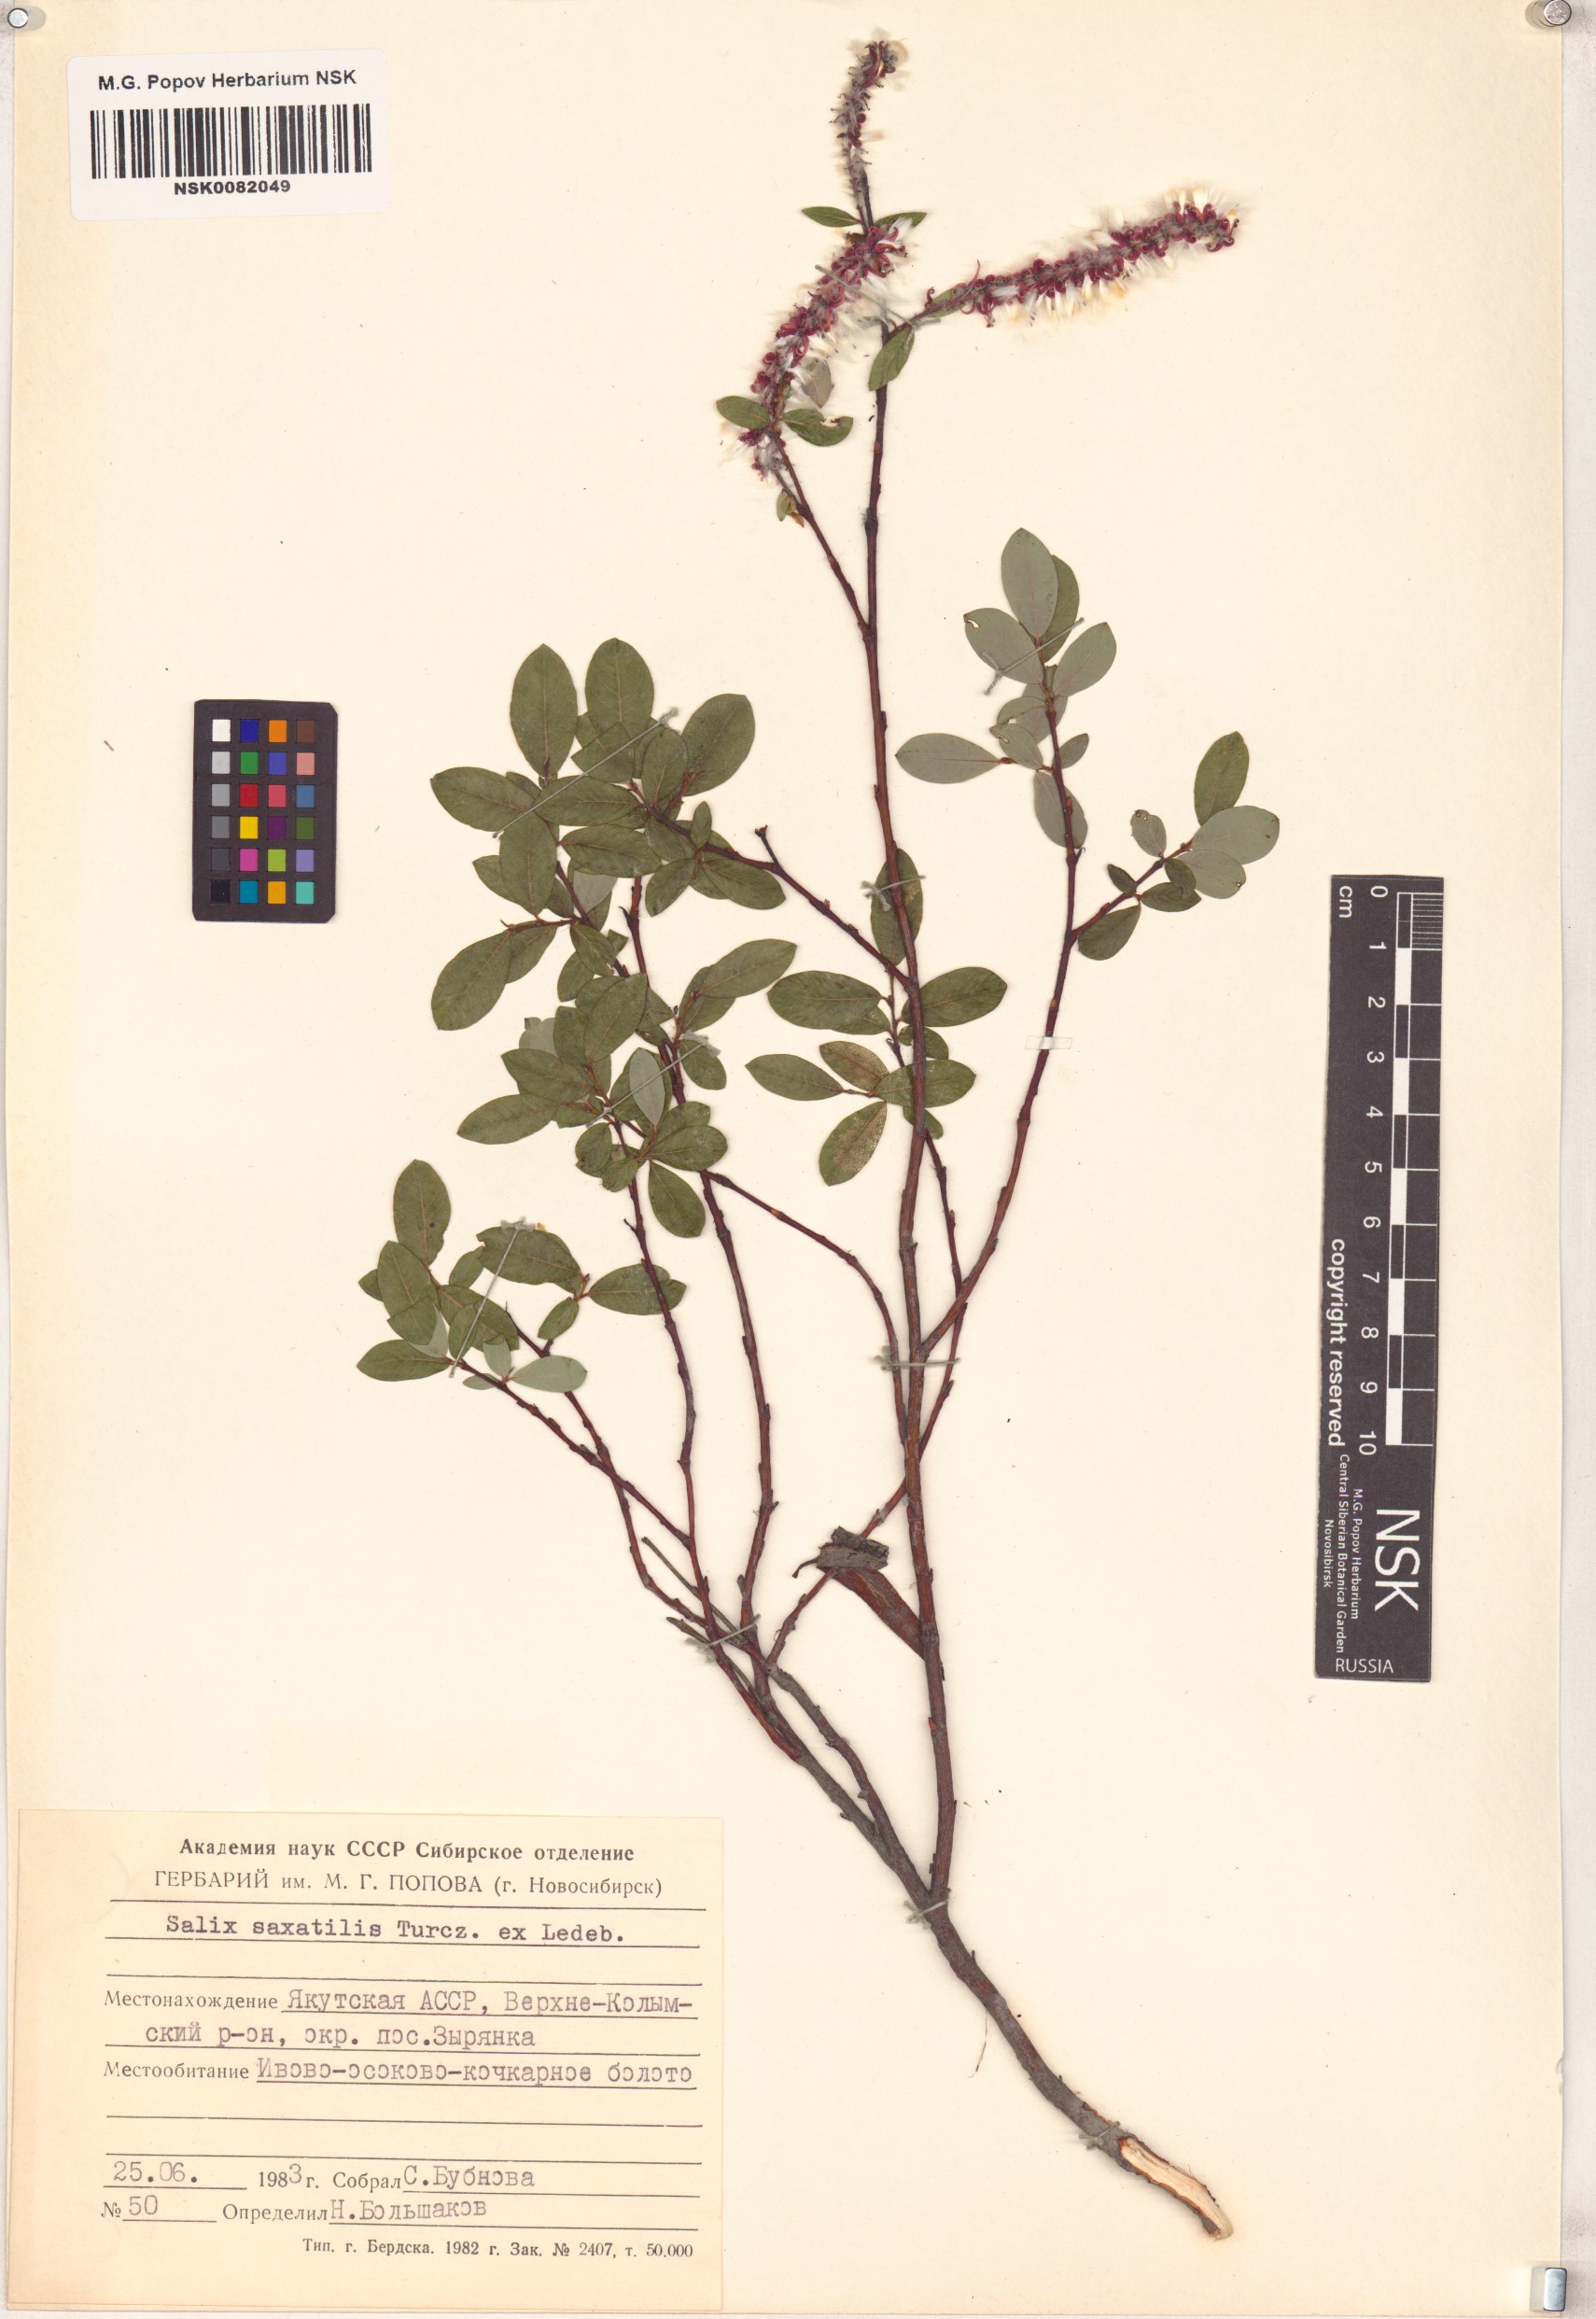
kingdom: Plantae
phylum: Tracheophyta
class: Magnoliopsida
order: Malpighiales
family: Salicaceae
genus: Salix
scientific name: Salix saxatilis
